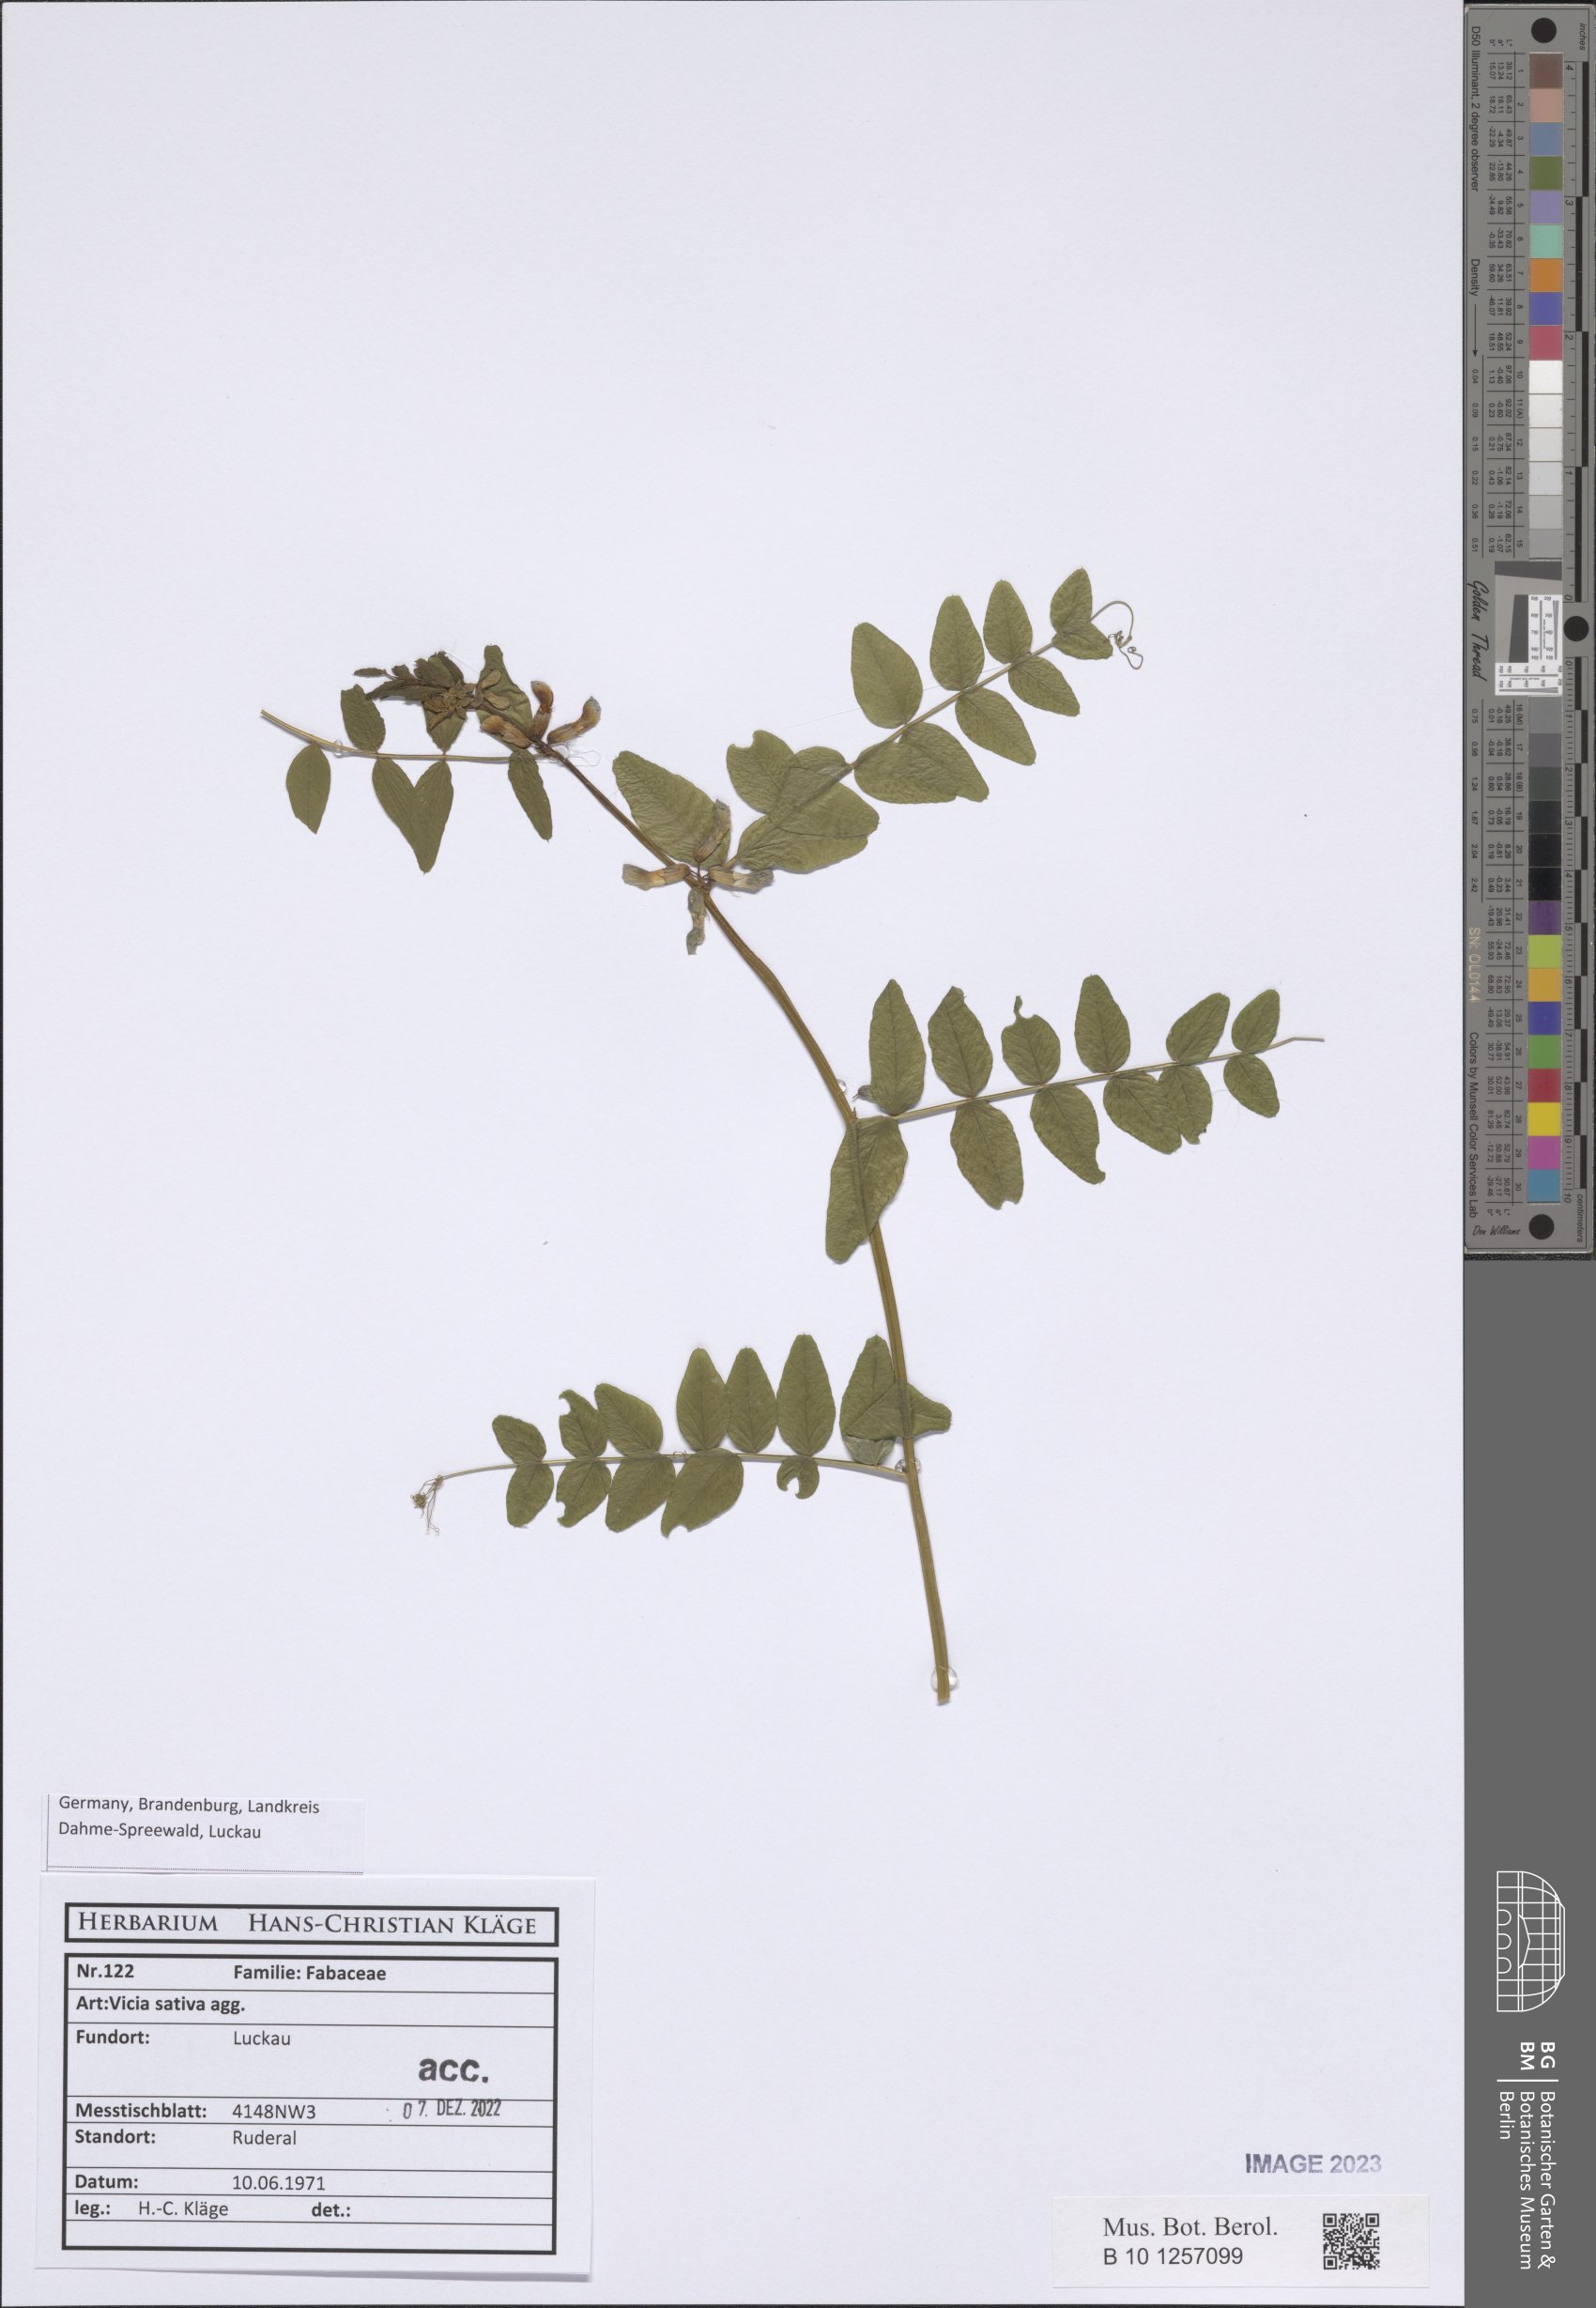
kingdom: Plantae
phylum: Tracheophyta
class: Magnoliopsida
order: Fabales
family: Fabaceae
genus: Vicia
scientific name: Vicia sativa
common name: Garden vetch
